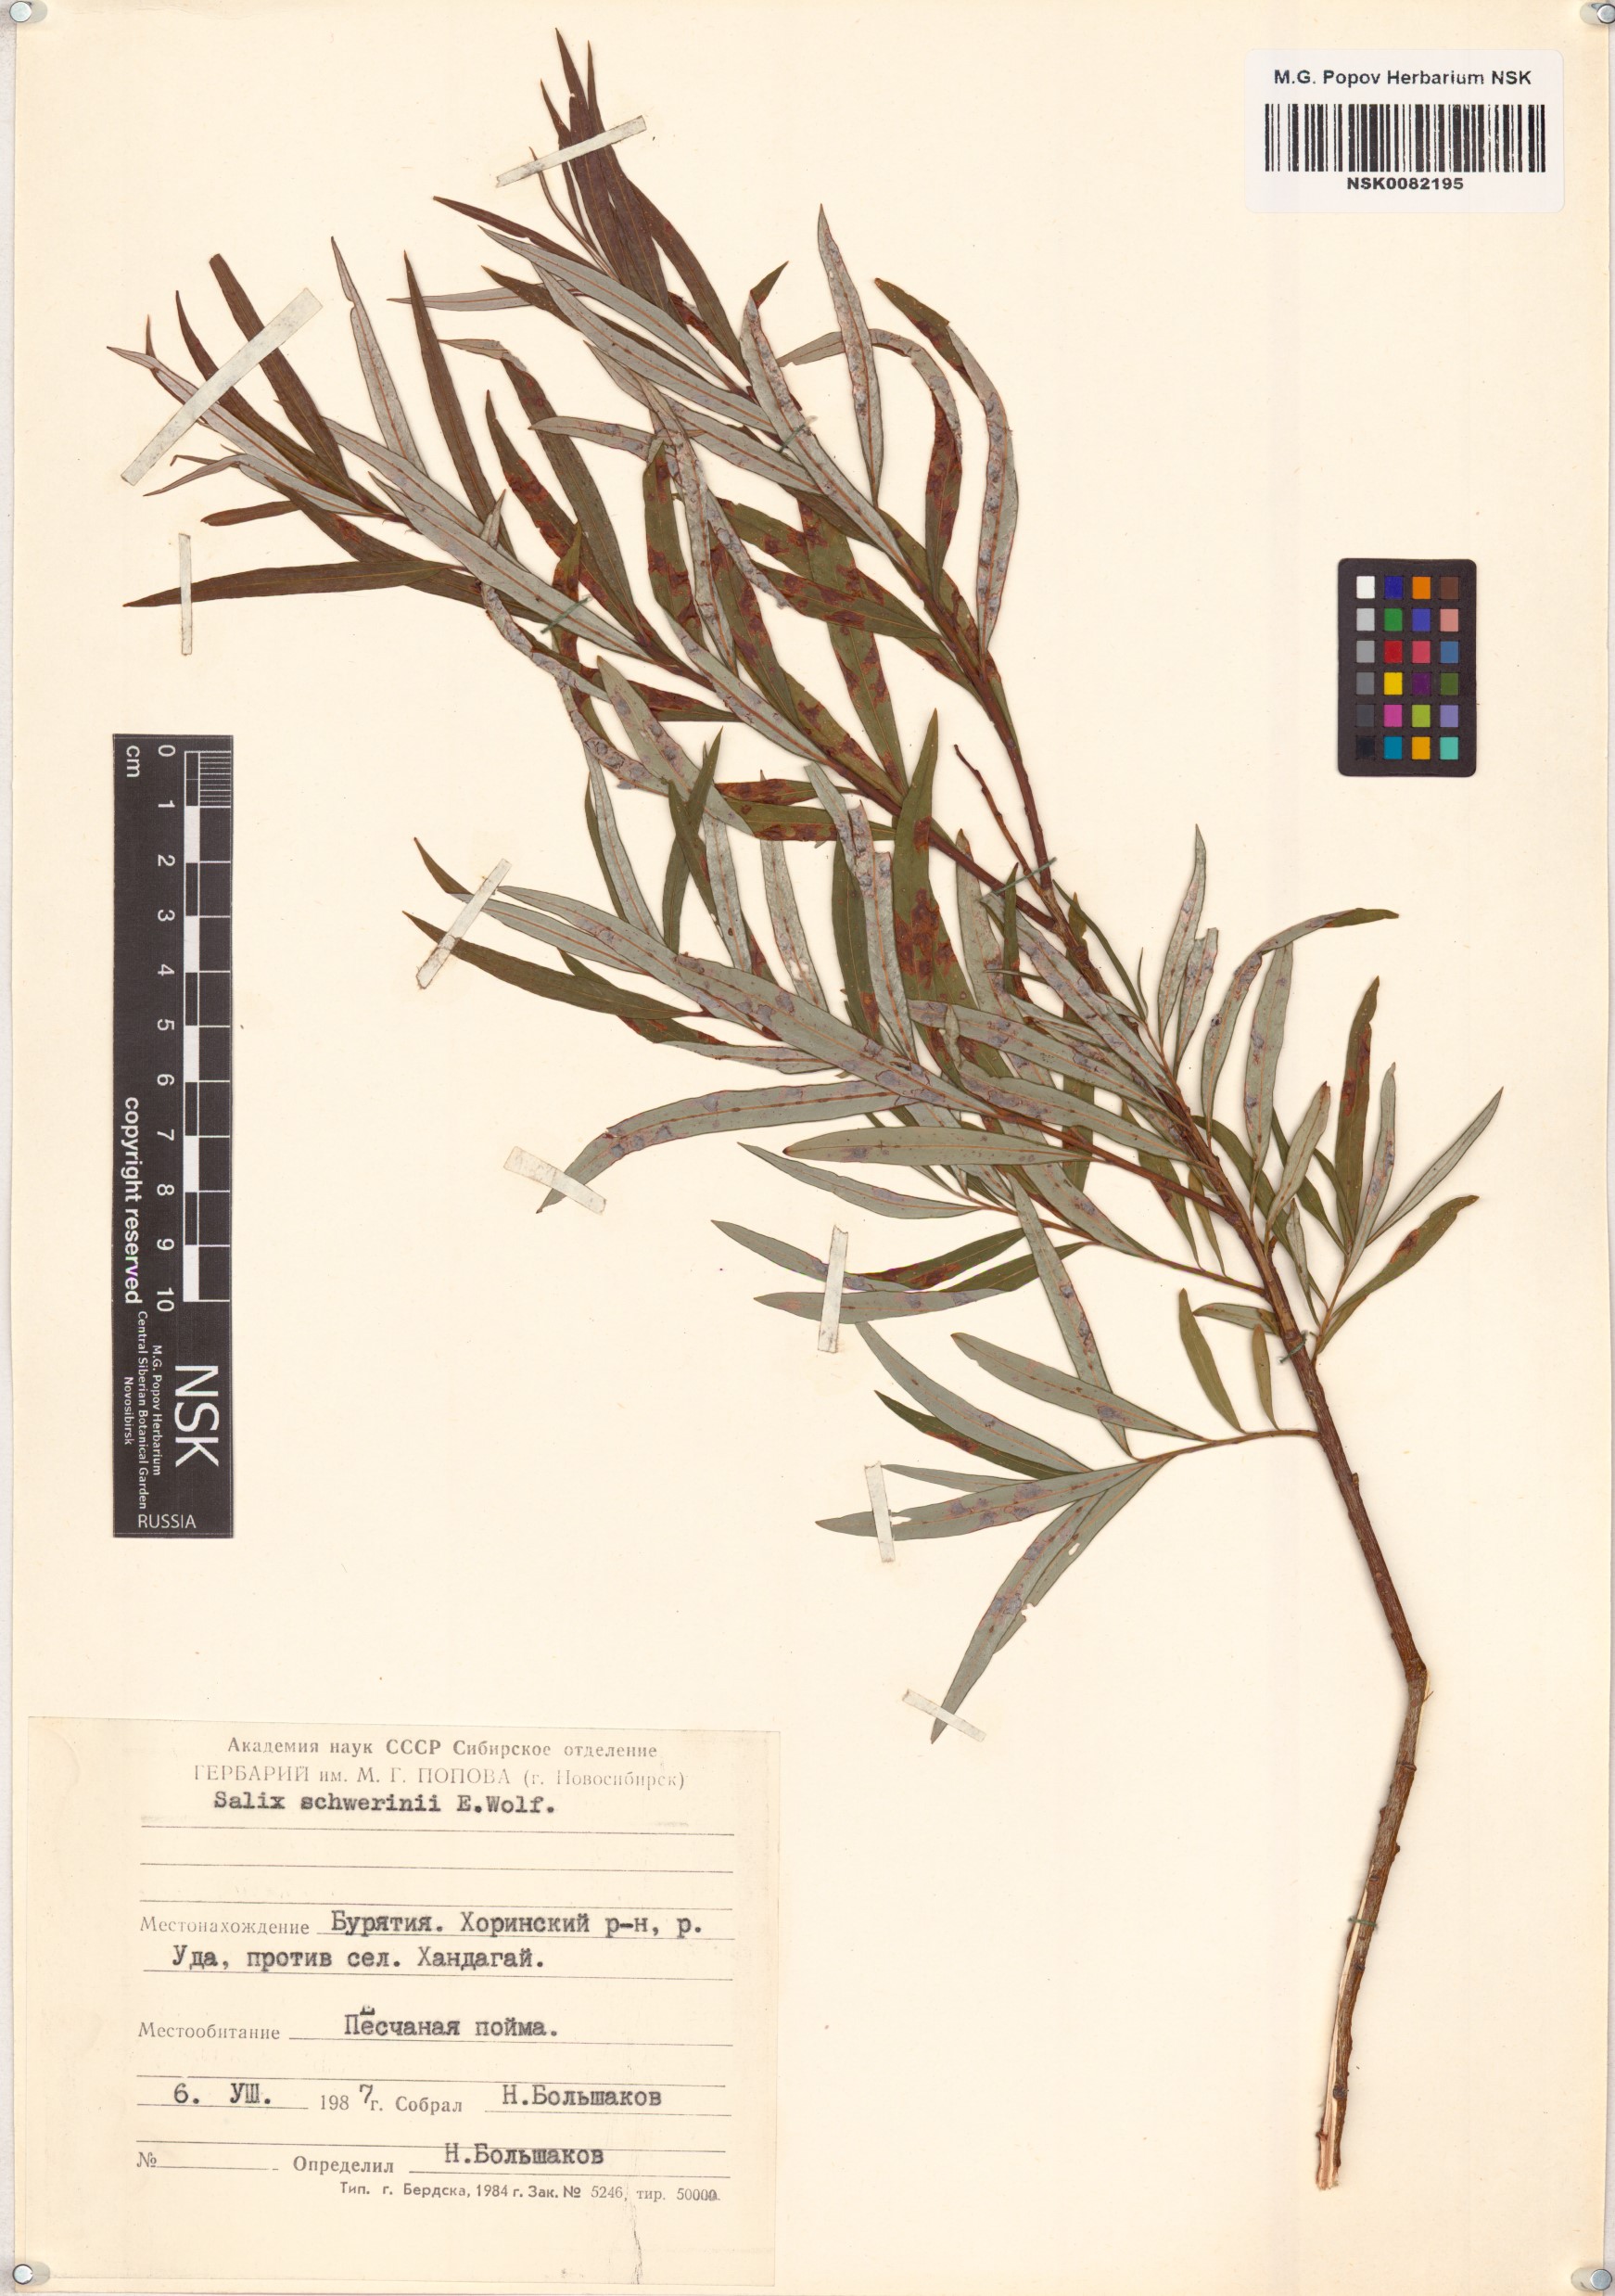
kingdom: Plantae
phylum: Tracheophyta
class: Magnoliopsida
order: Malpighiales
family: Salicaceae
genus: Salix
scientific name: Salix schwerinii
